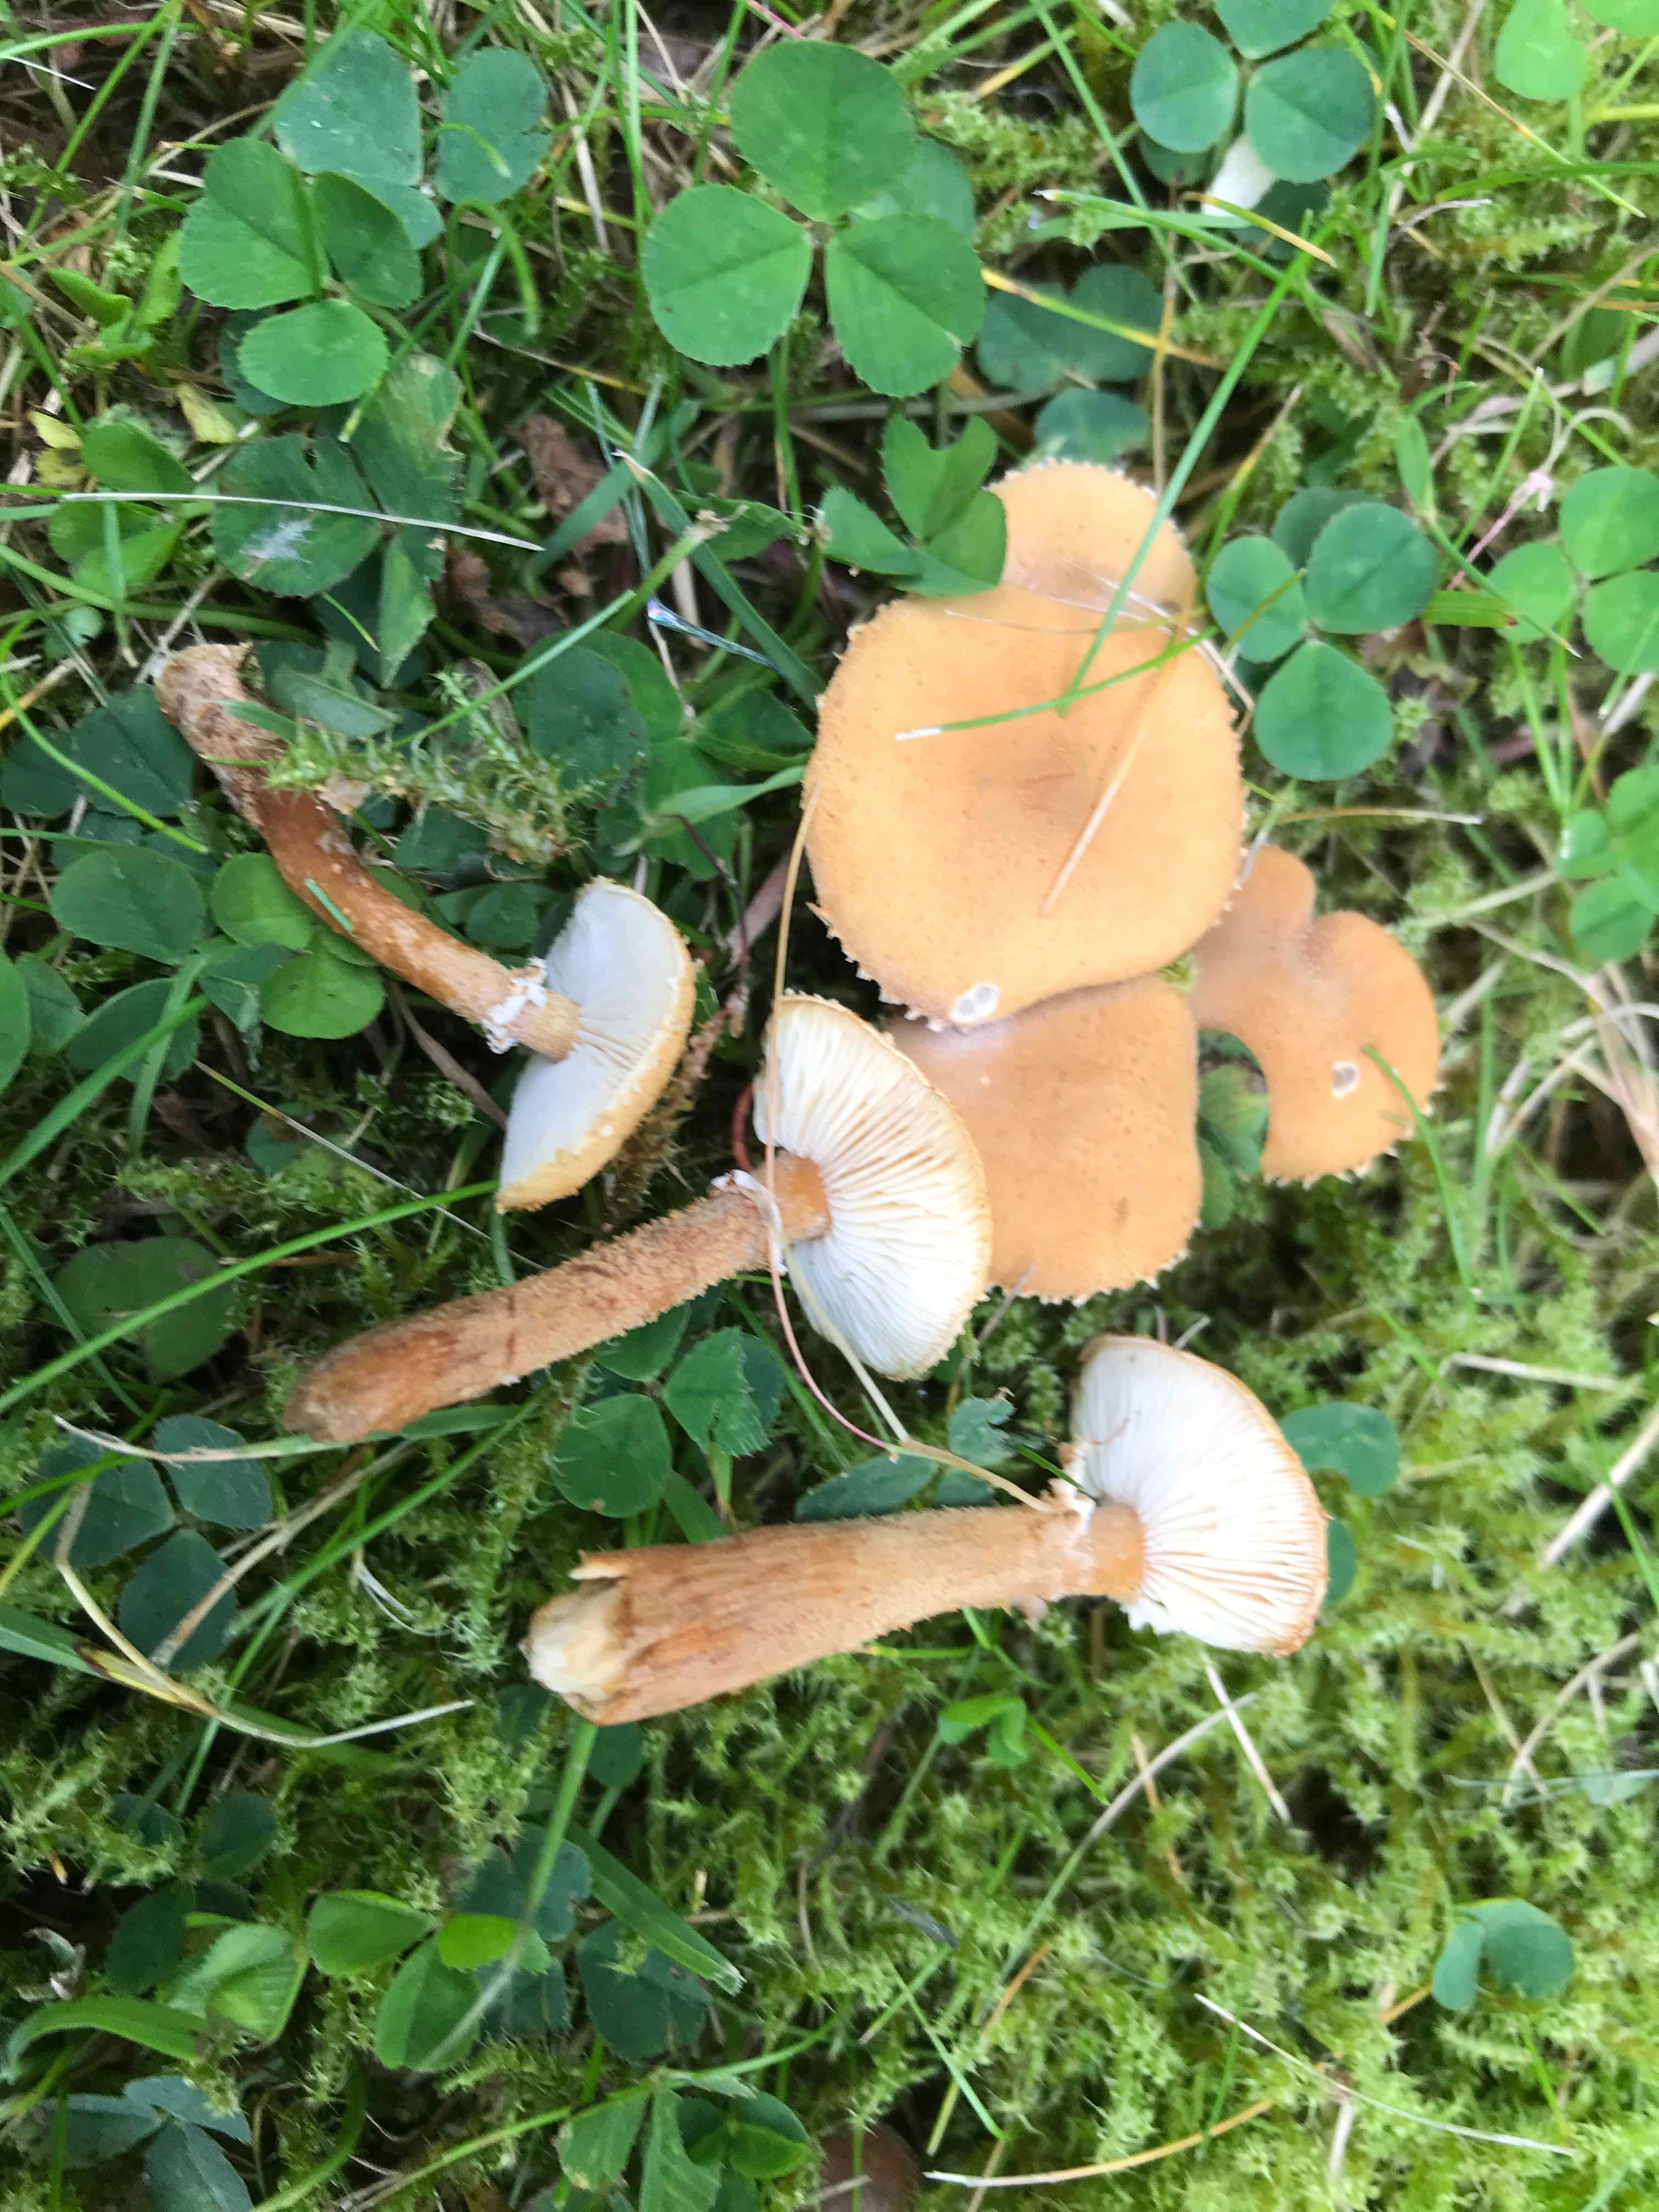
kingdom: Fungi
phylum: Basidiomycota
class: Agaricomycetes
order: Agaricales
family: Tricholomataceae
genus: Cystoderma
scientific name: Cystoderma amianthinum
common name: okkergul grynhat
